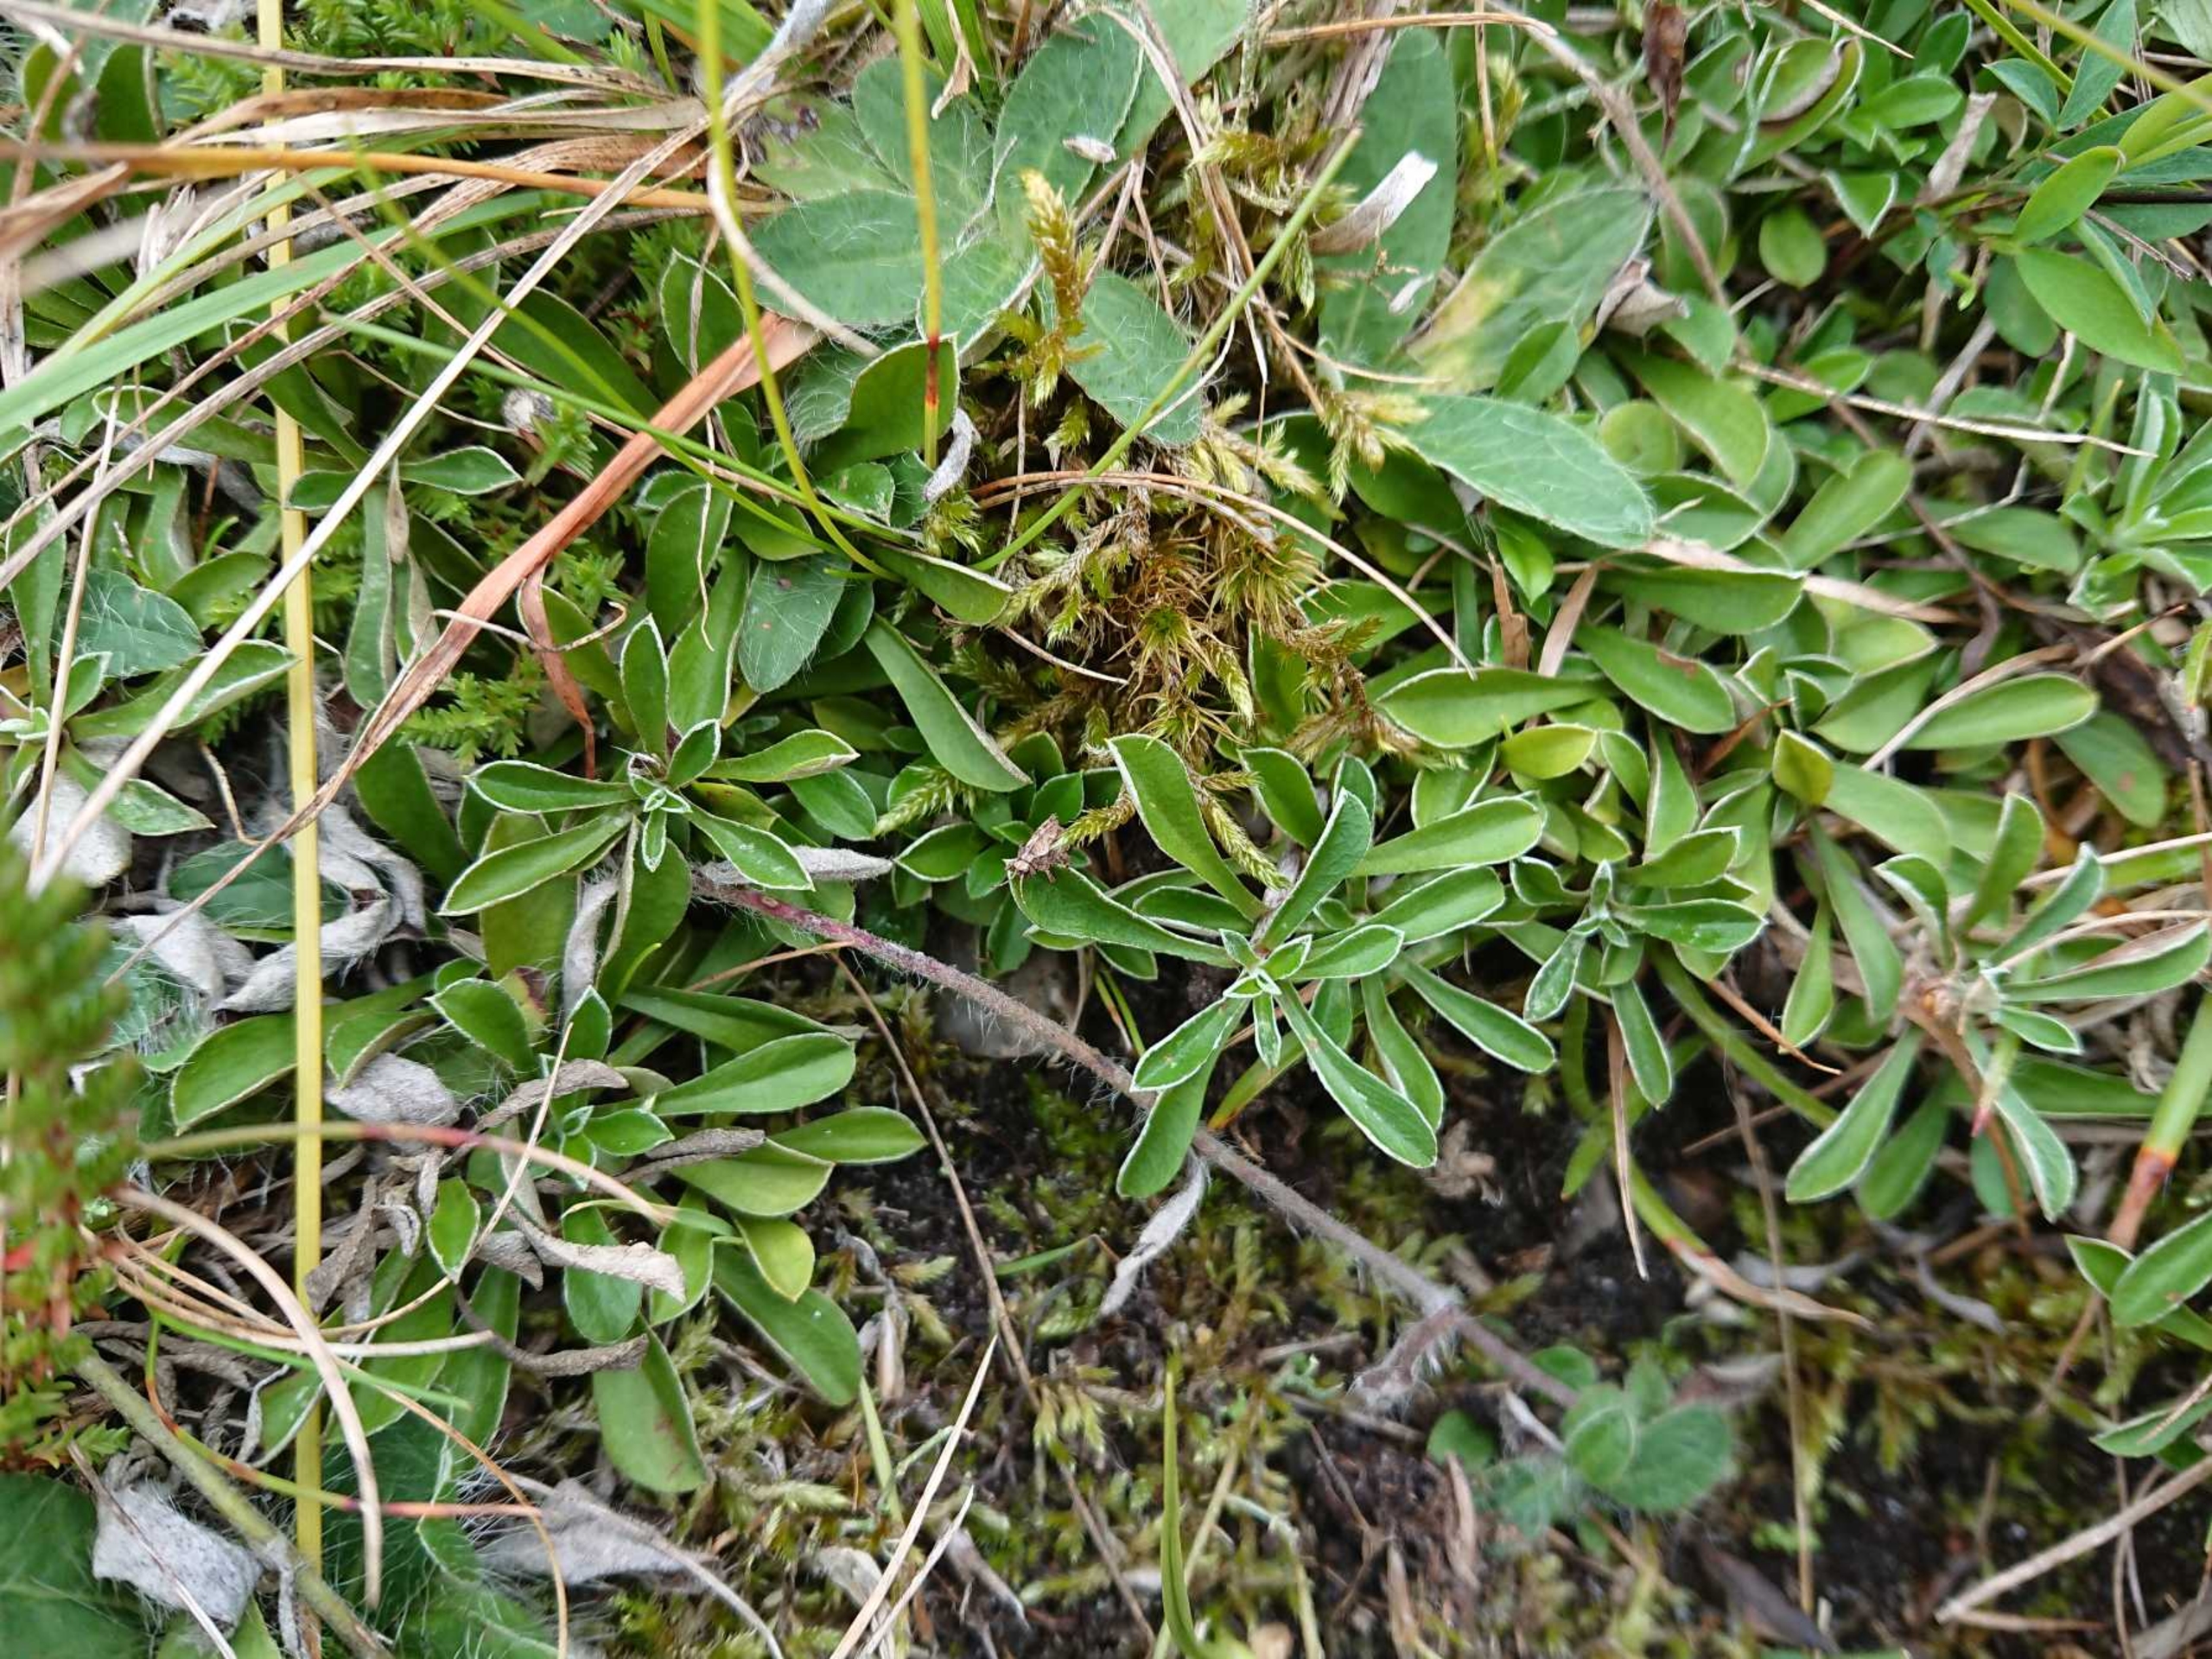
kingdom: Plantae
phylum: Tracheophyta
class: Magnoliopsida
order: Asterales
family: Asteraceae
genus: Antennaria
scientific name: Antennaria dioica
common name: Kattefod
